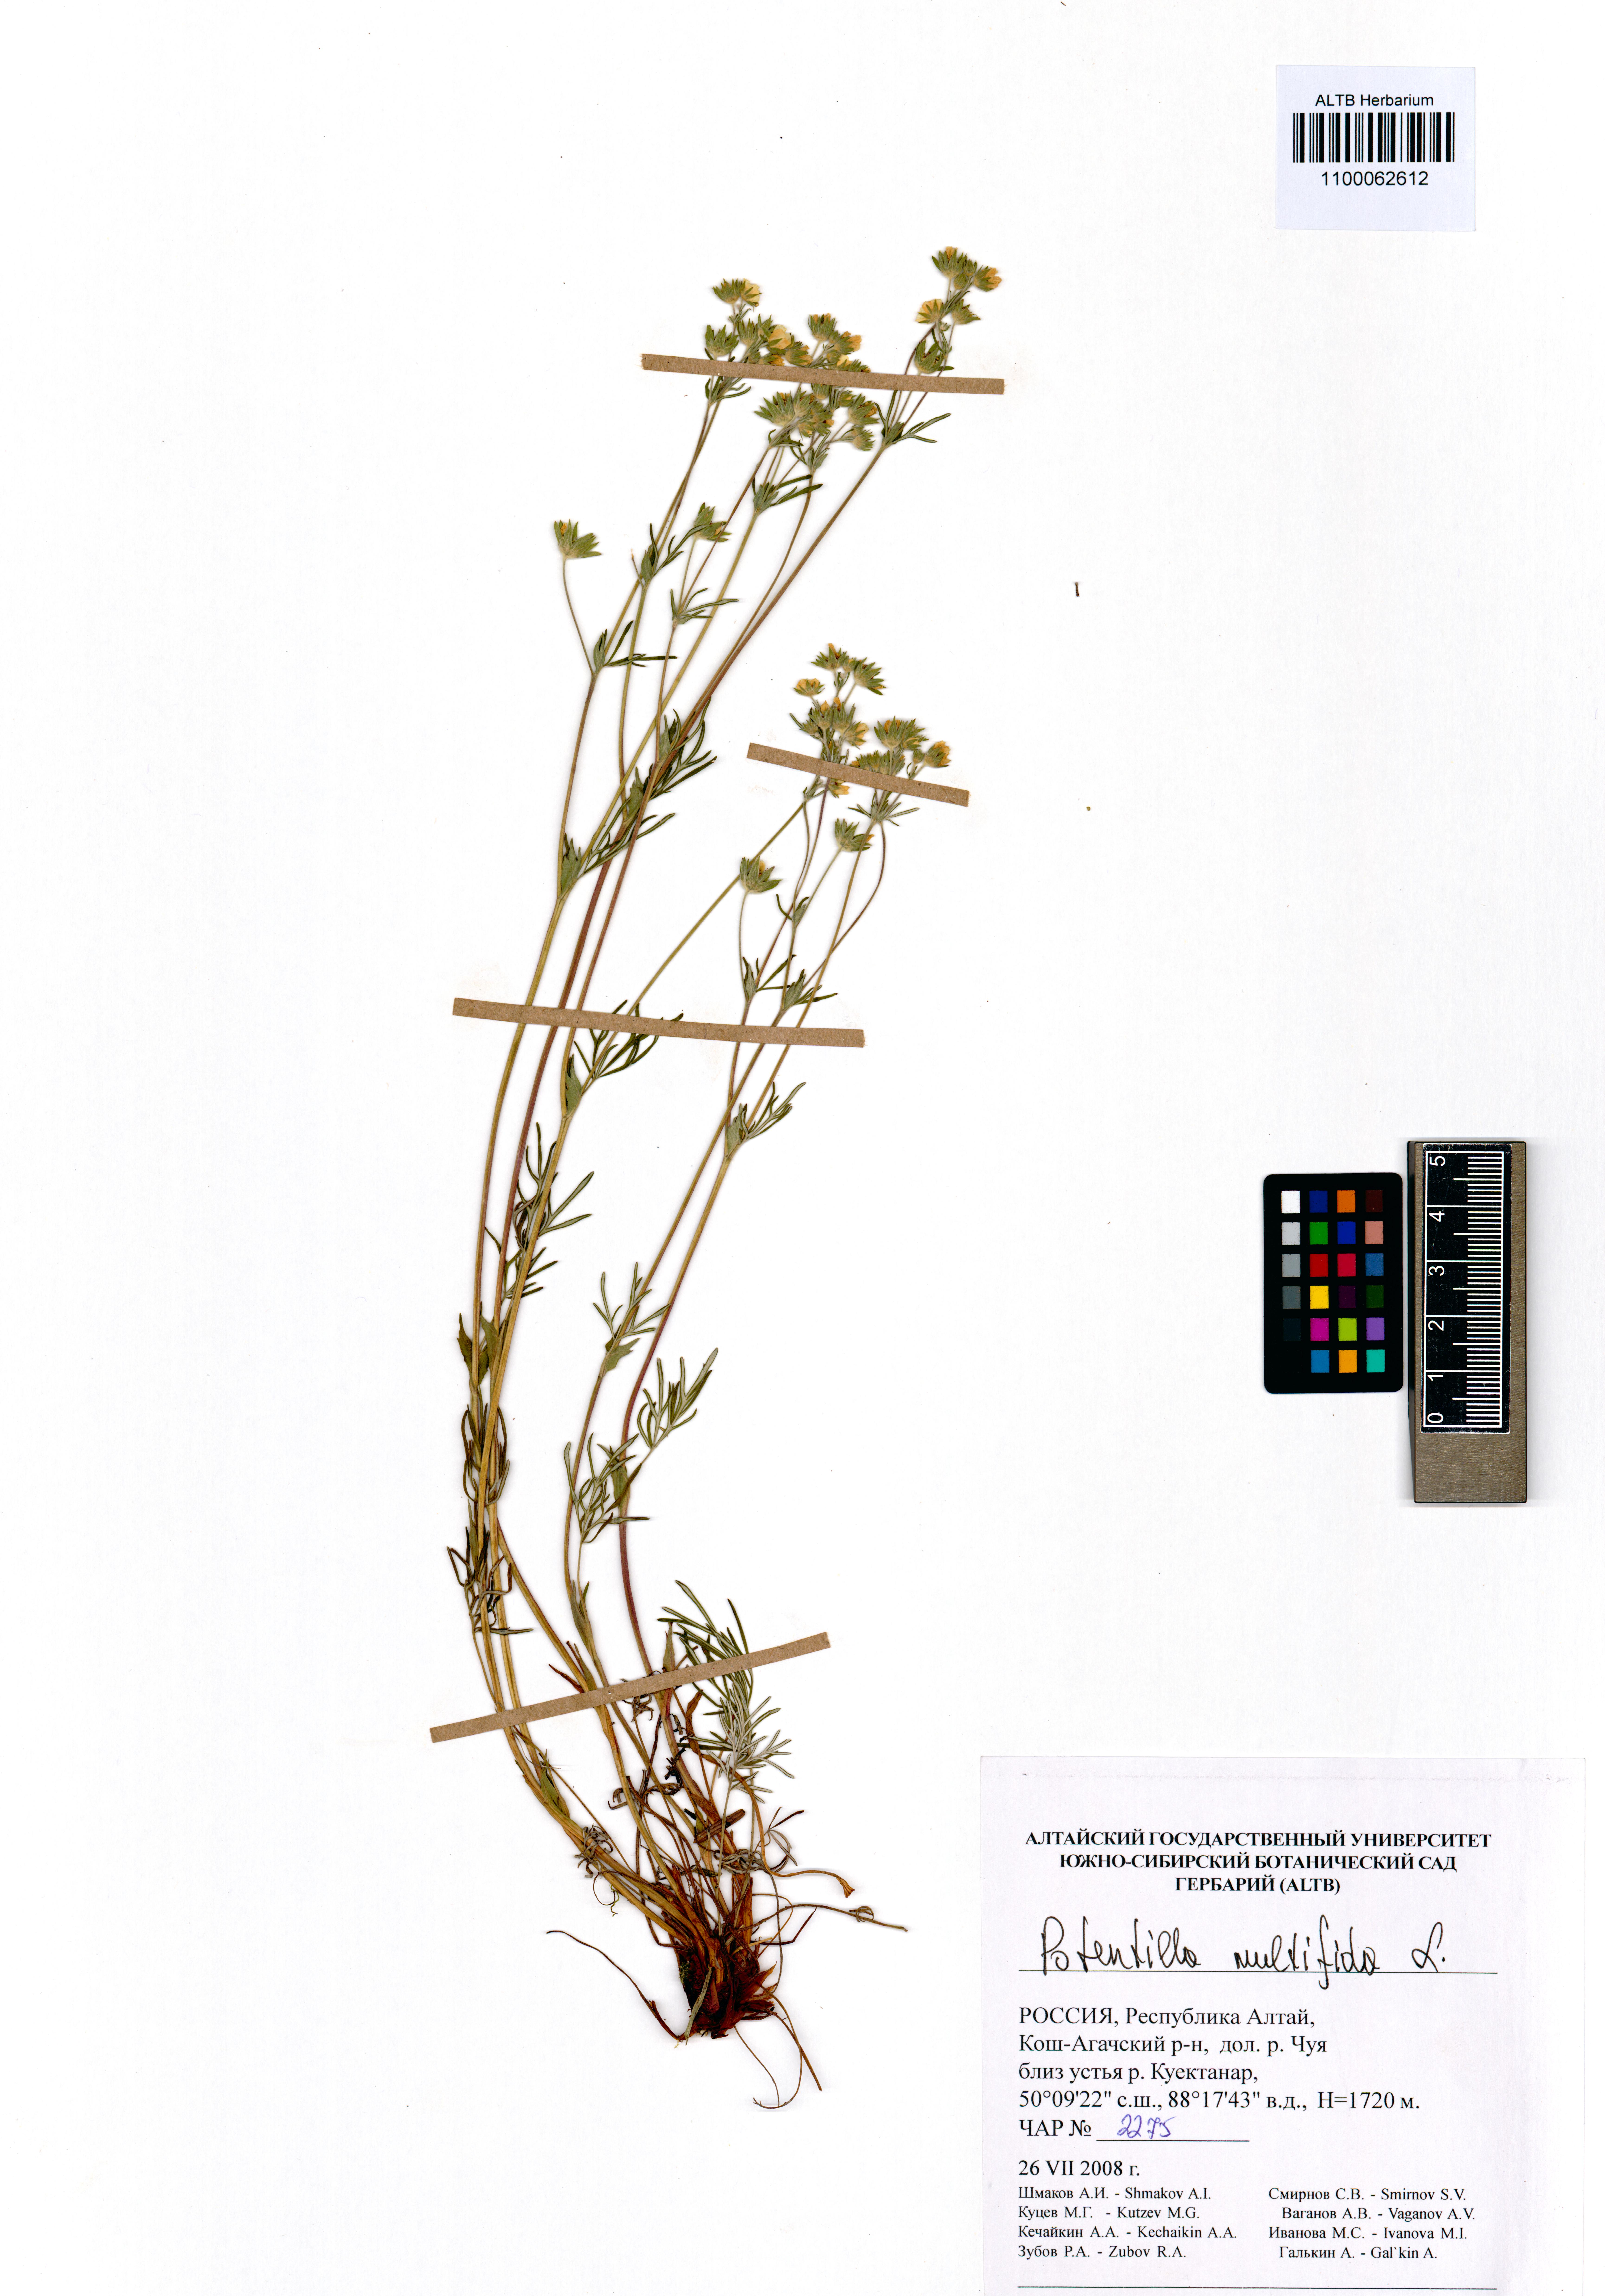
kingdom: Plantae
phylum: Tracheophyta
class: Magnoliopsida
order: Rosales
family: Rosaceae
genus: Potentilla
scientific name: Potentilla multifida
